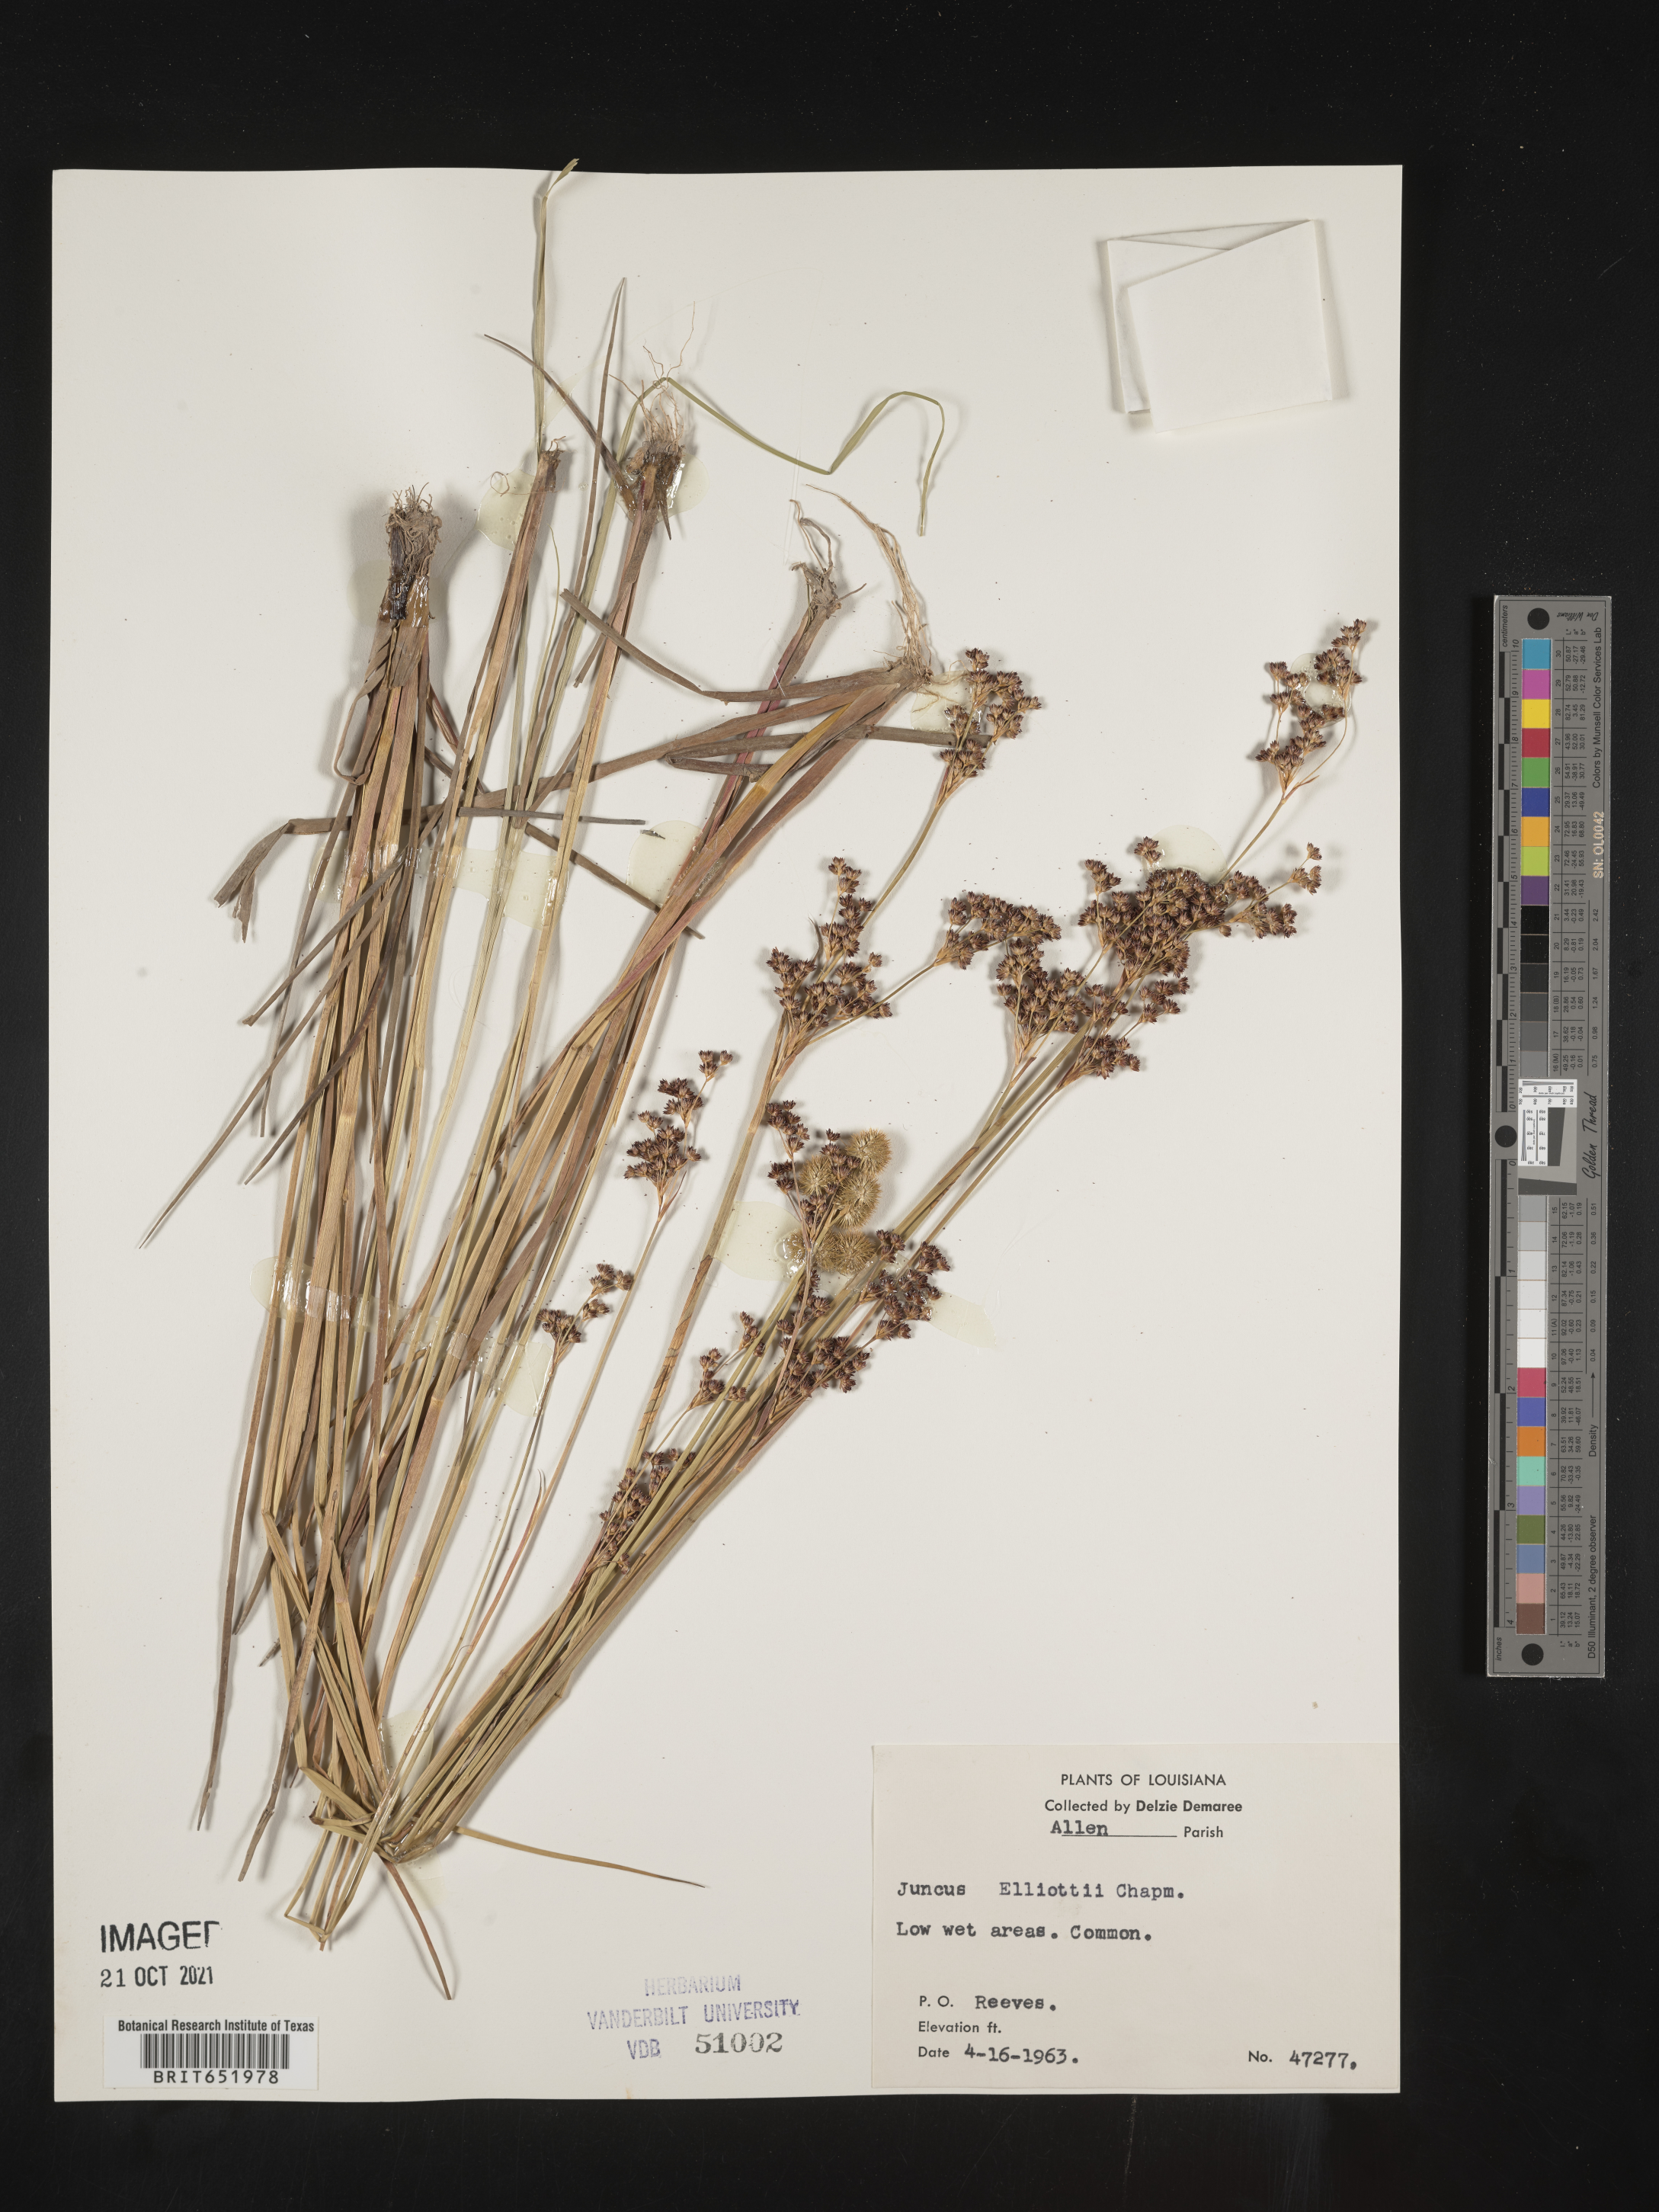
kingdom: Plantae
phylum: Tracheophyta
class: Liliopsida
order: Poales
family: Juncaceae
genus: Juncus
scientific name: Juncus elliottii
